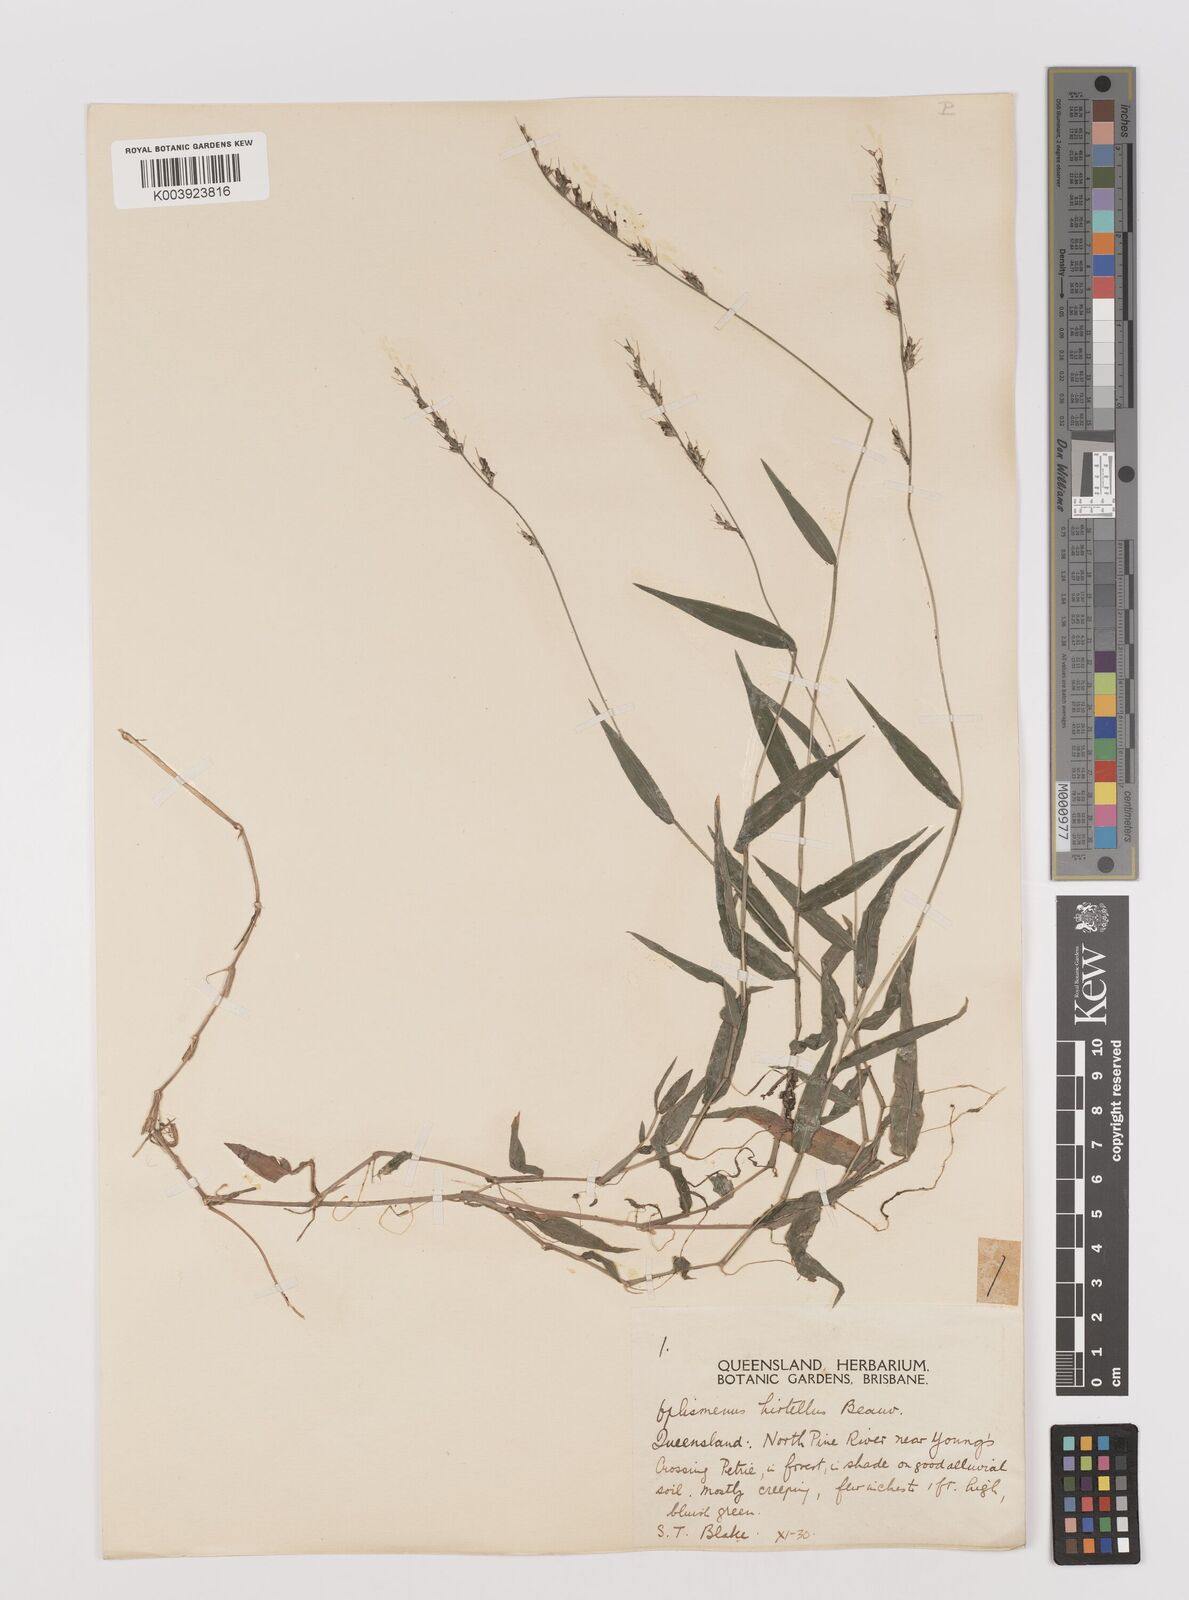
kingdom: Plantae
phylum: Tracheophyta
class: Liliopsida
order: Poales
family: Poaceae
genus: Oplismenus
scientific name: Oplismenus hirtellus
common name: Basketgrass
